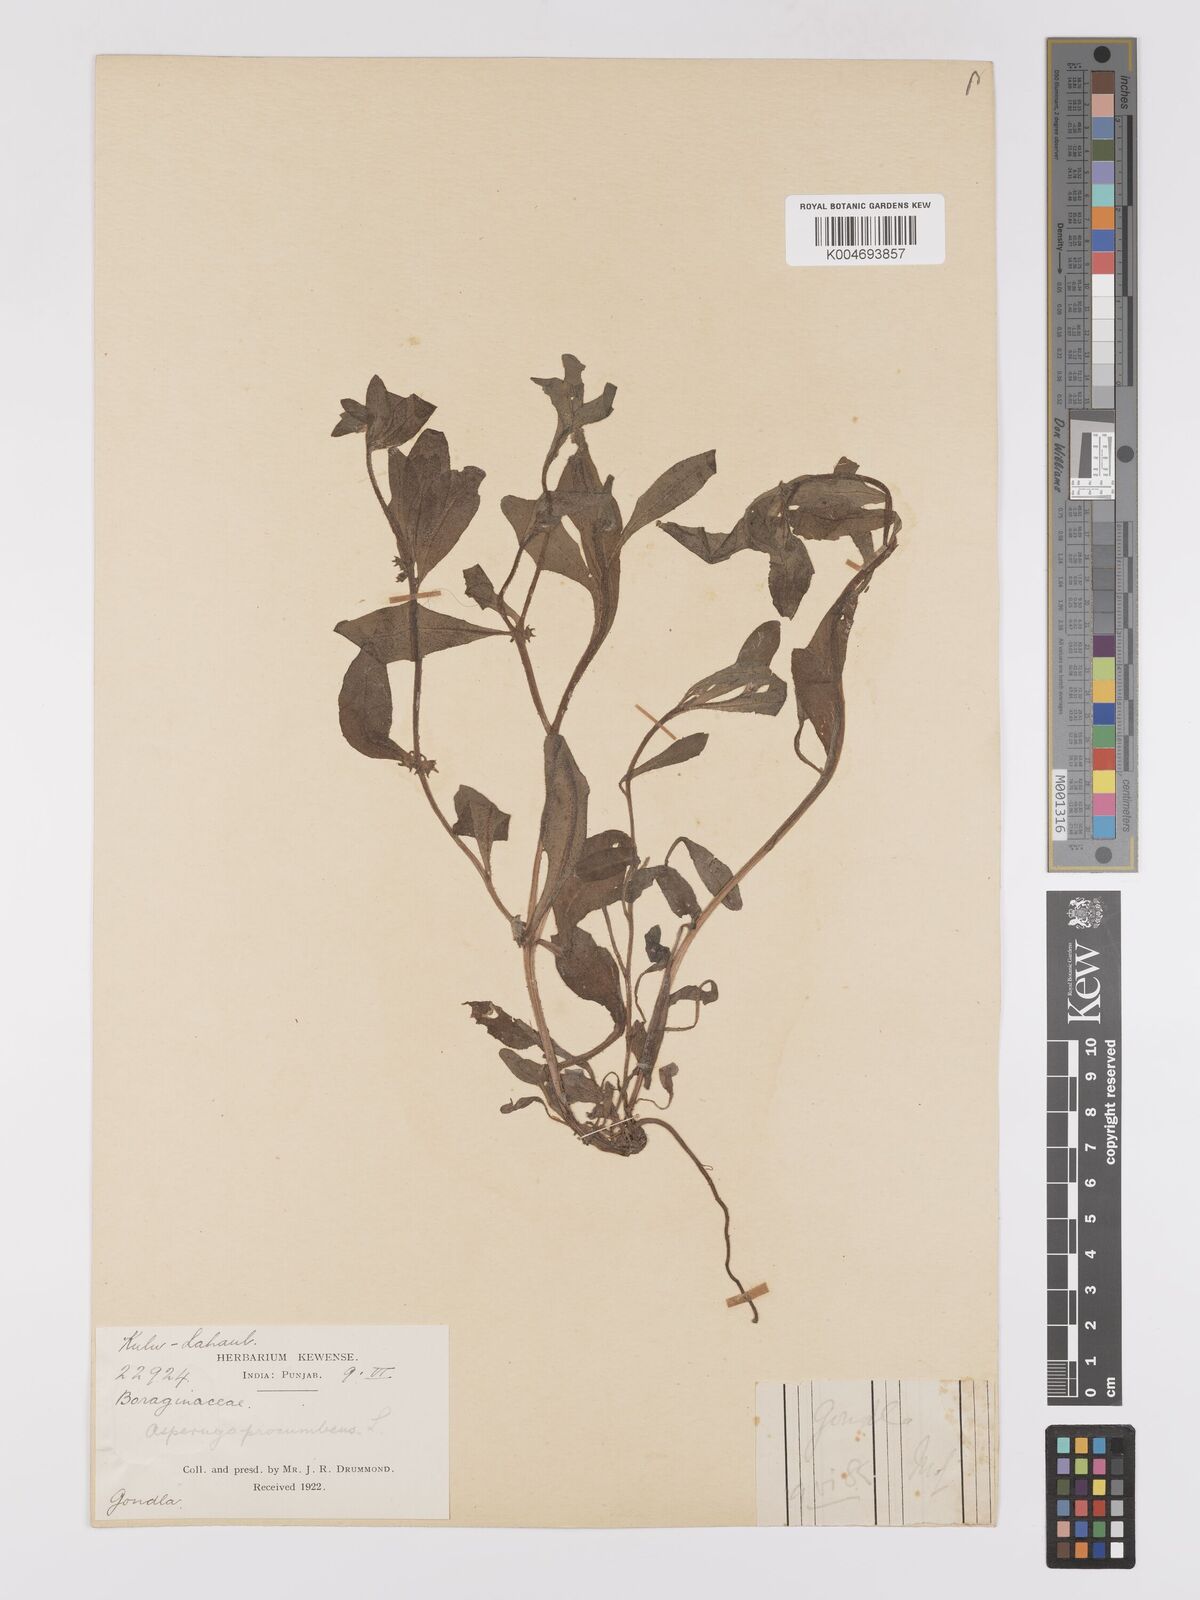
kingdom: Plantae
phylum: Tracheophyta
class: Magnoliopsida
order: Boraginales
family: Boraginaceae
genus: Asperugo
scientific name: Asperugo procumbens
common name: Madwort
